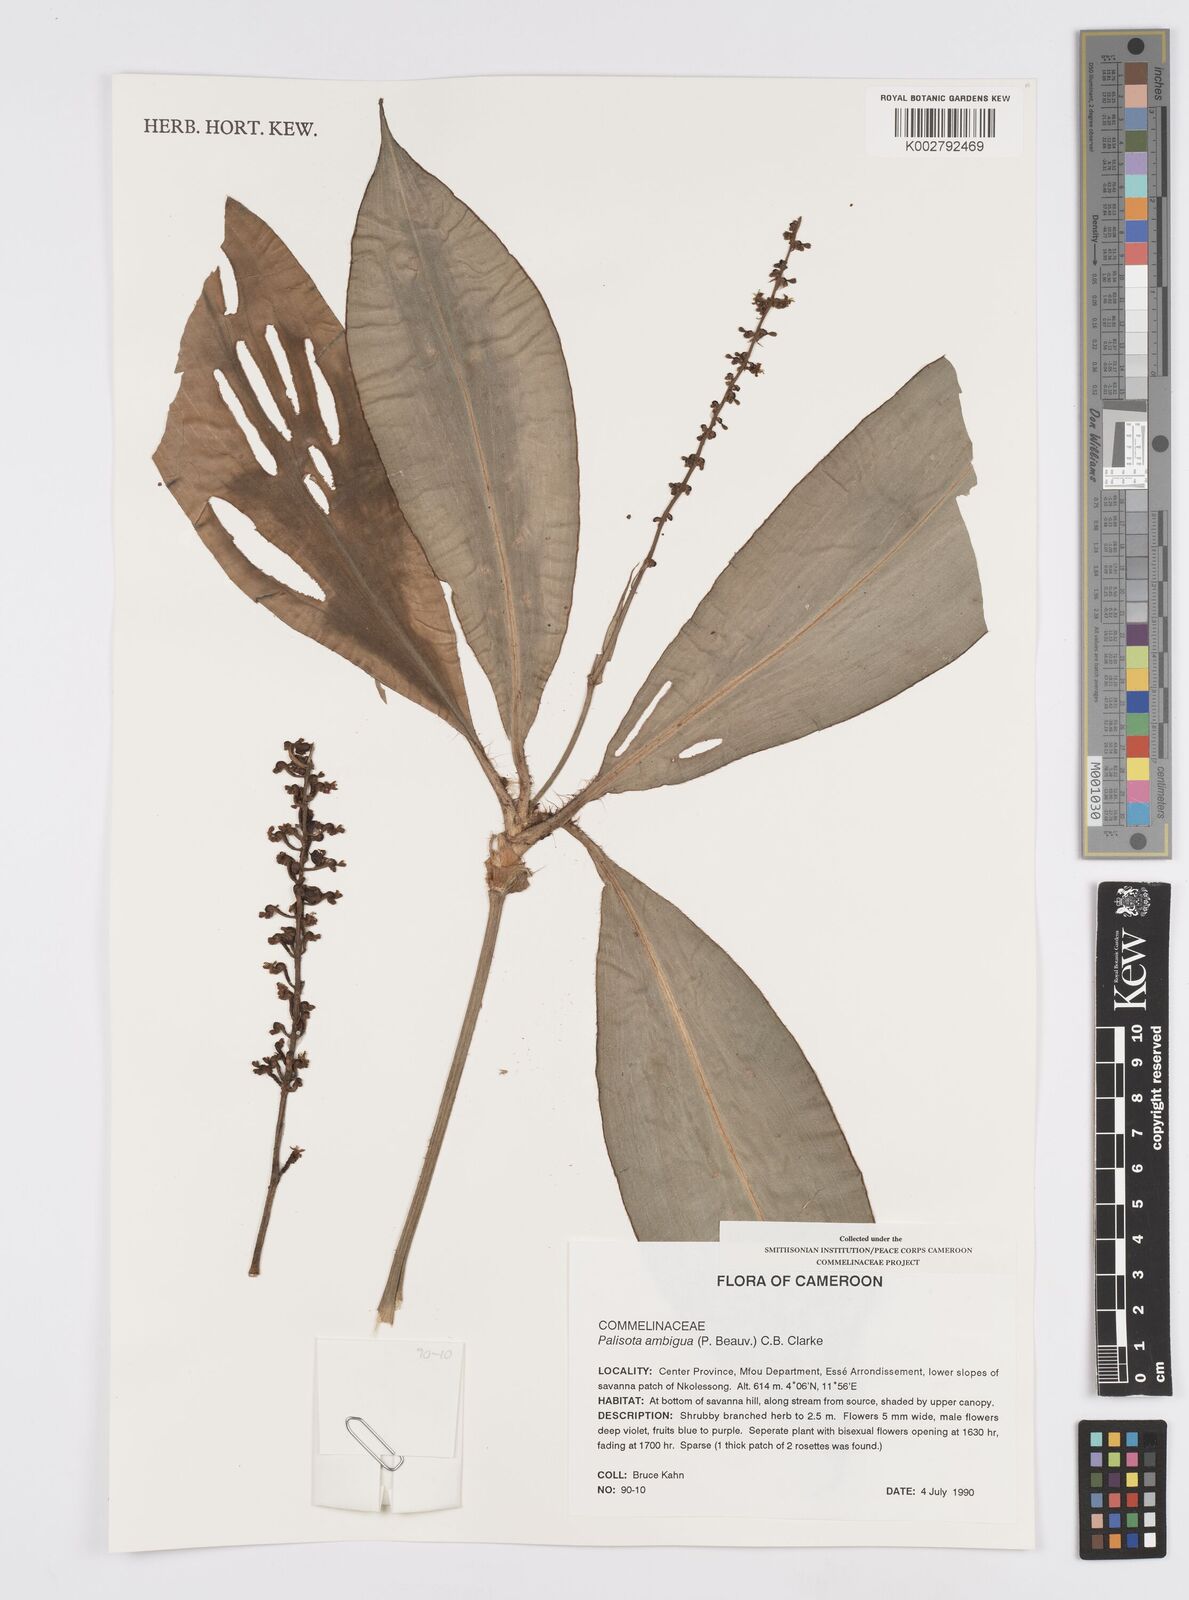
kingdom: Plantae
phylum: Tracheophyta
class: Liliopsida
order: Commelinales
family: Commelinaceae
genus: Palisota
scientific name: Palisota ambigua
